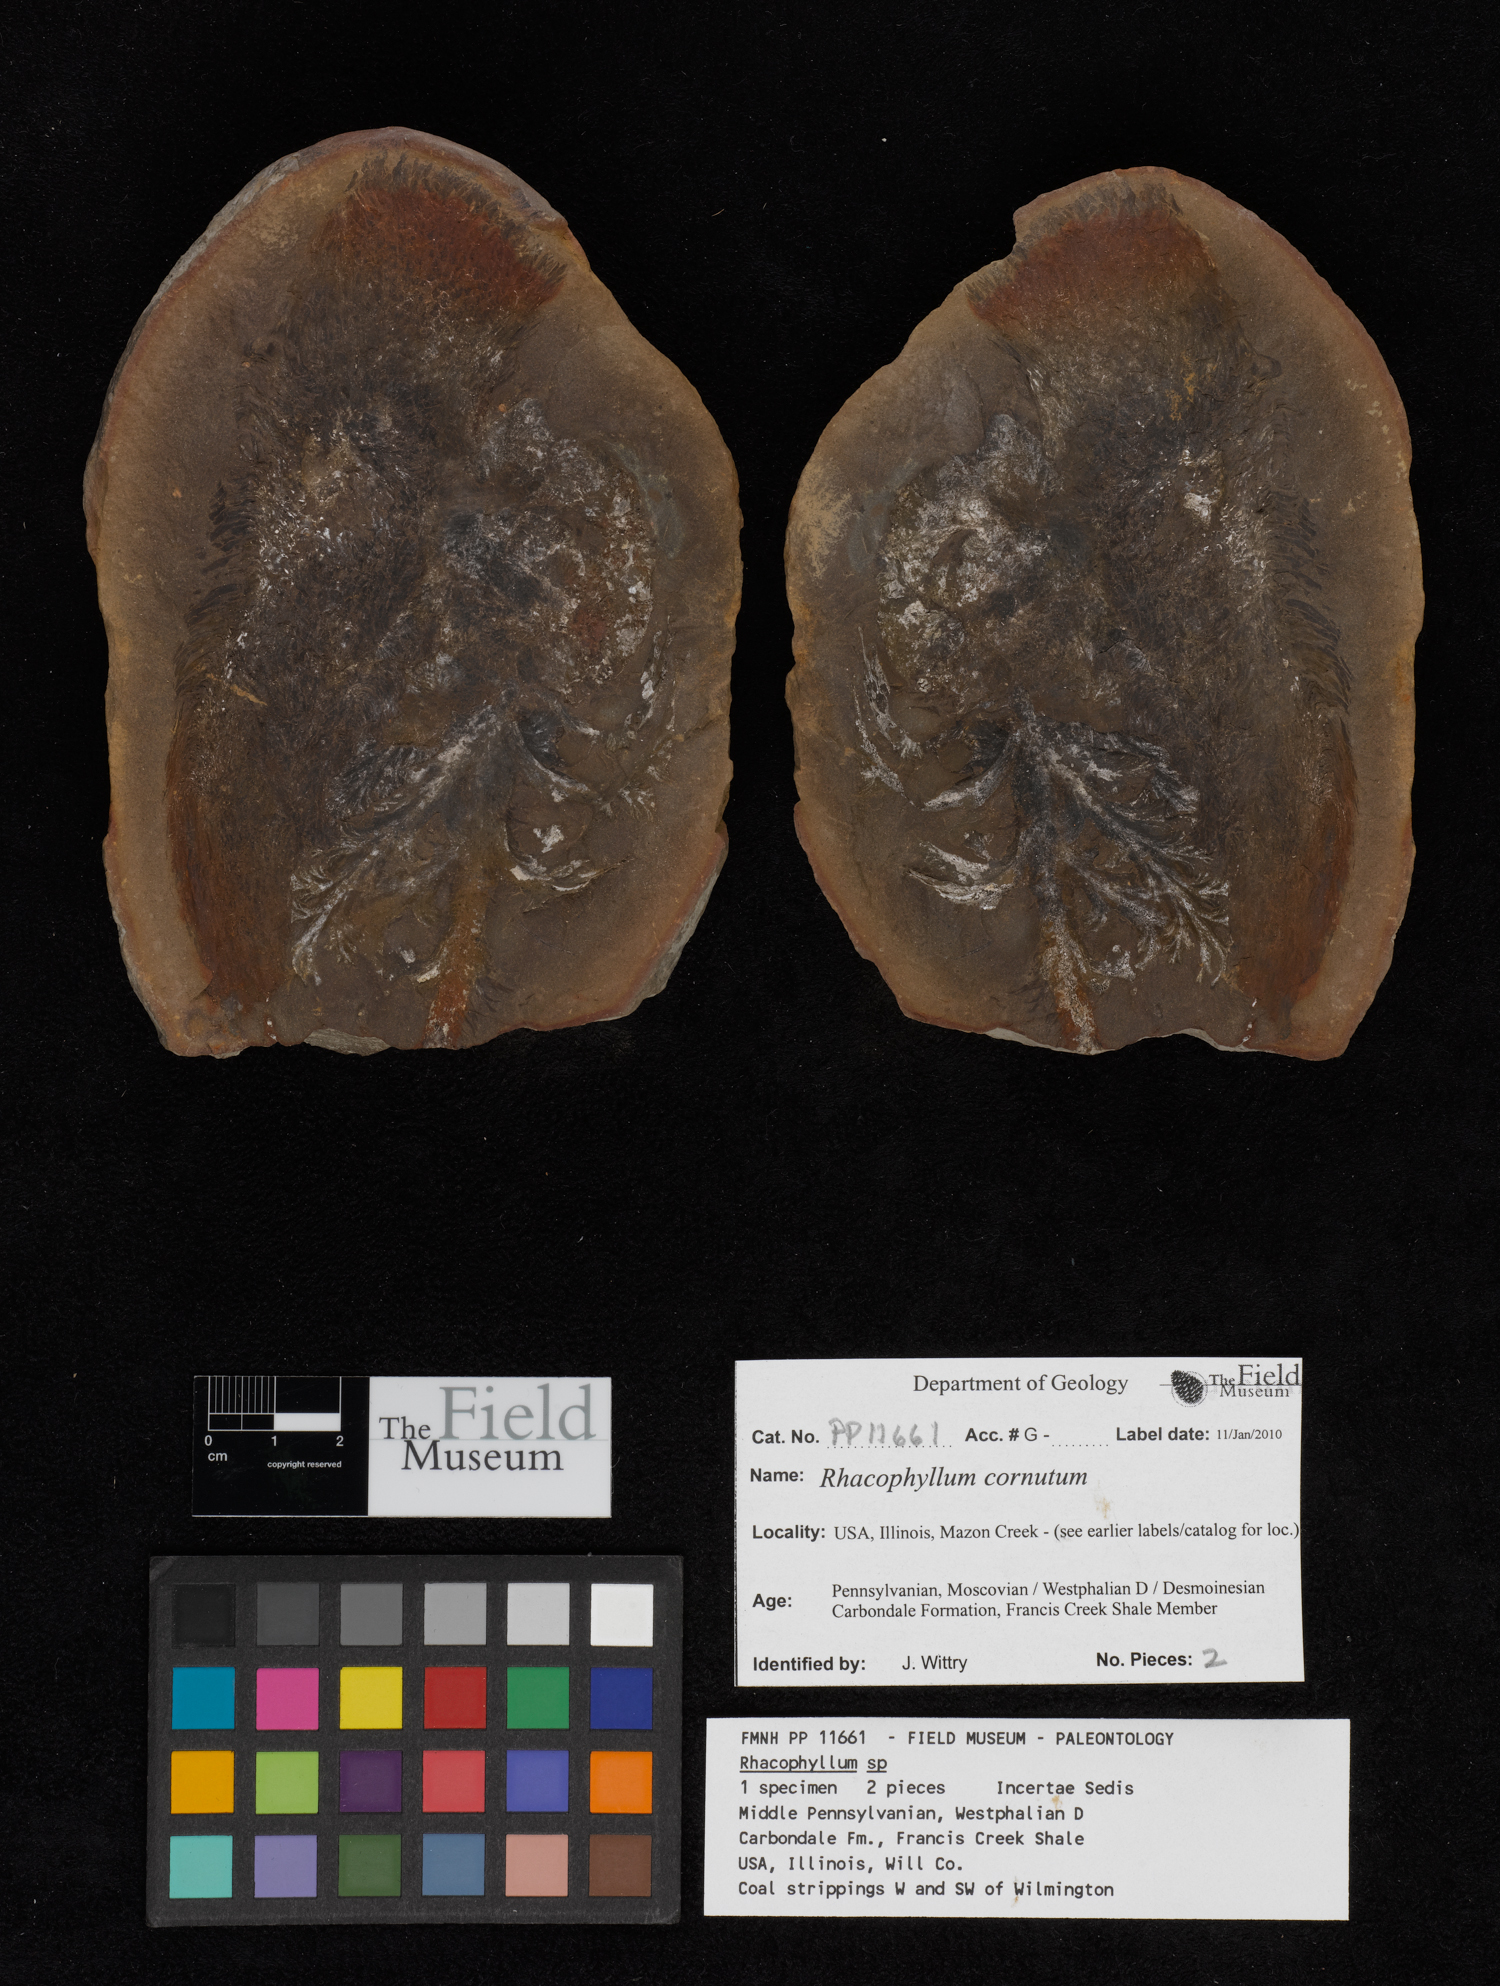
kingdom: Plantae
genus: Rhacophyllum
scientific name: Rhacophyllum
